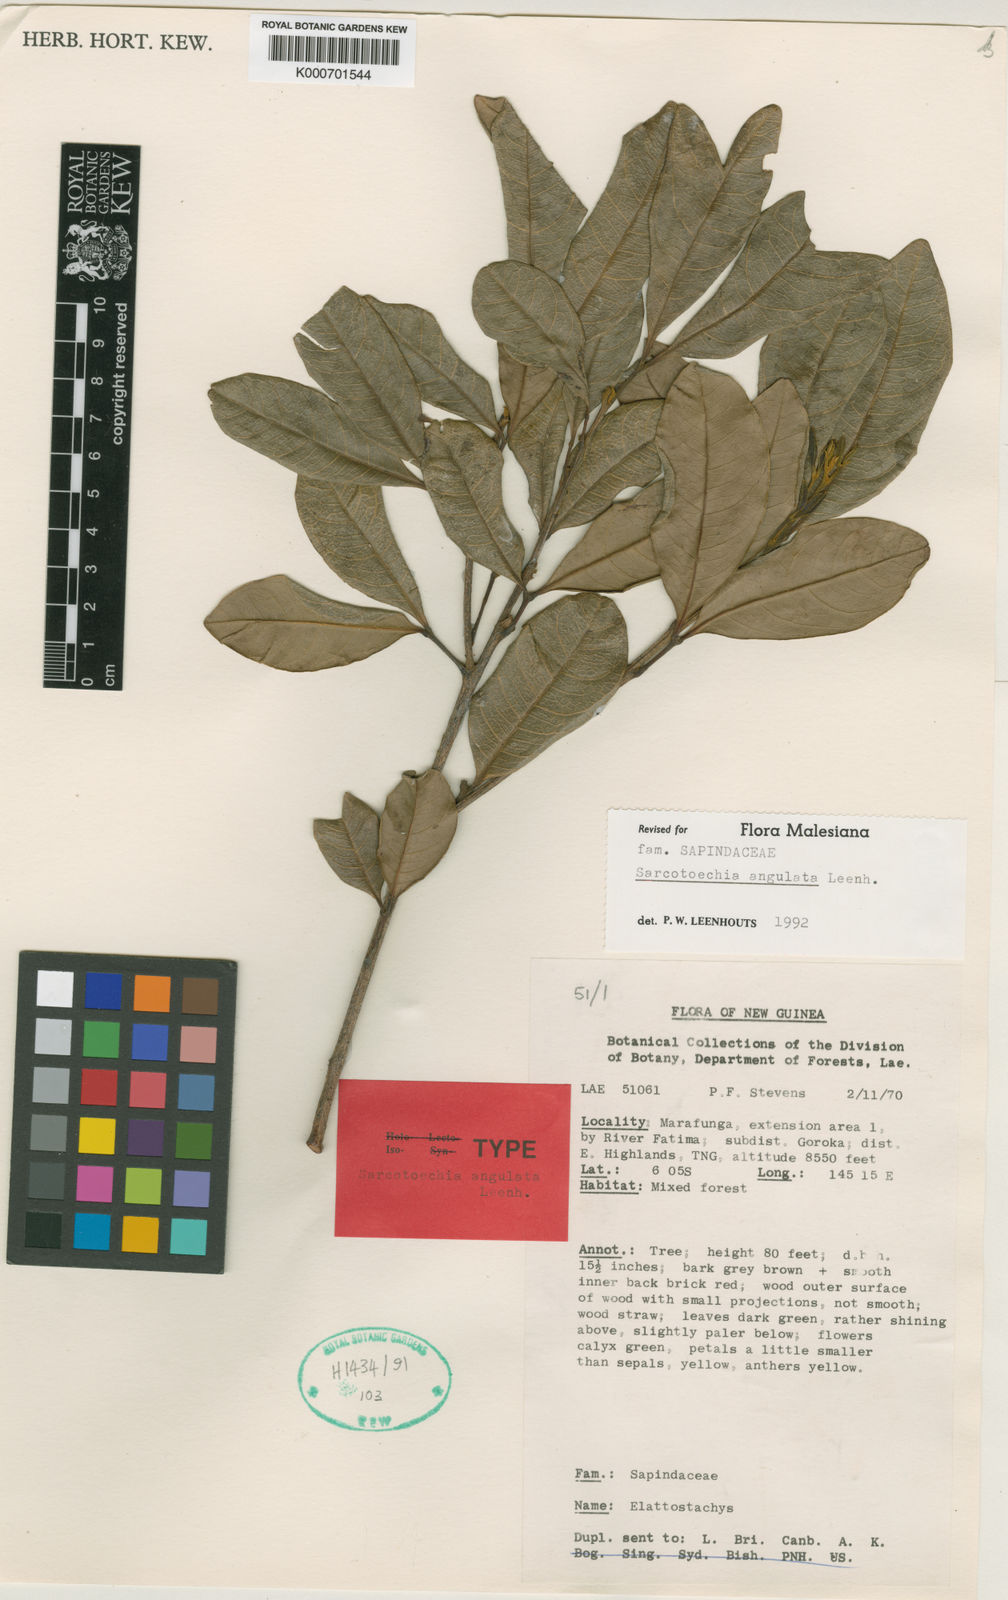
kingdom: Plantae
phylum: Tracheophyta
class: Magnoliopsida
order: Sapindales
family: Sapindaceae
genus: Sarcotoechia
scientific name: Sarcotoechia angulata
